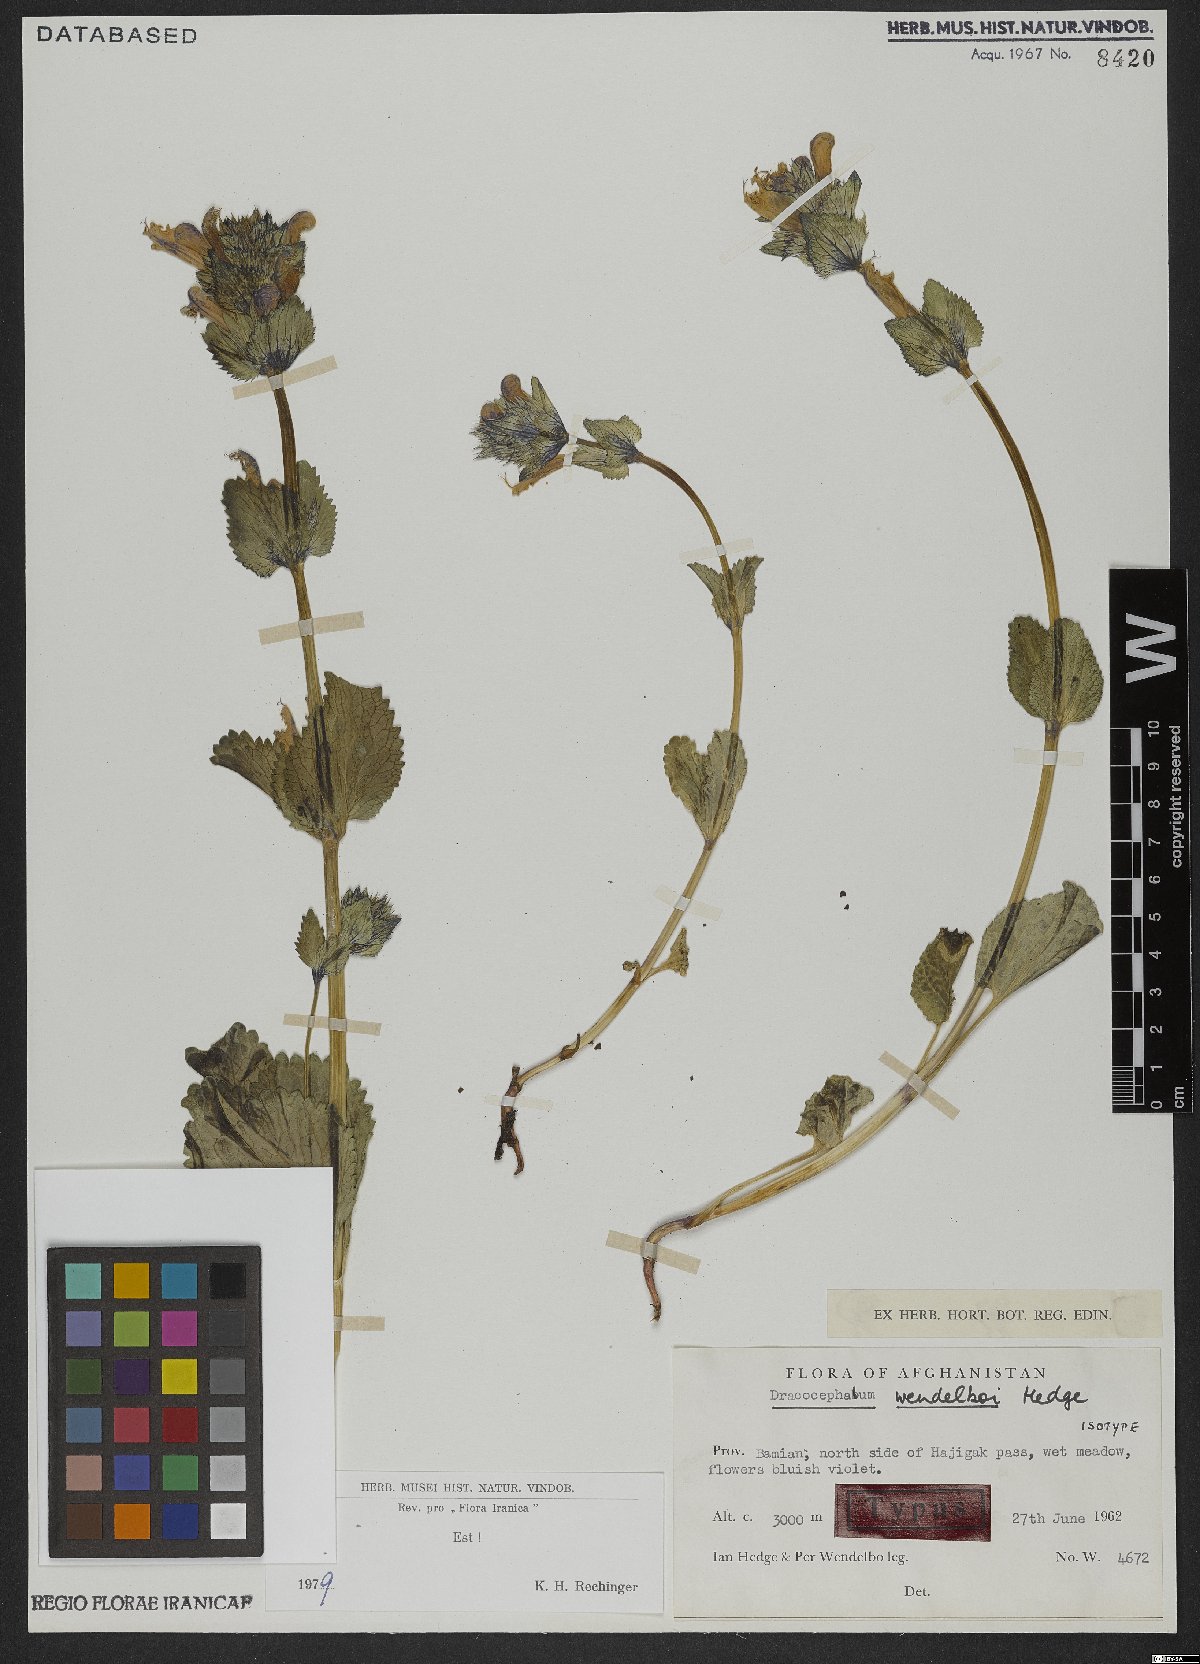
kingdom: Plantae
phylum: Tracheophyta
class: Magnoliopsida
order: Lamiales
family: Lamiaceae
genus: Dracocephalum
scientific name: Dracocephalum wendelboi
